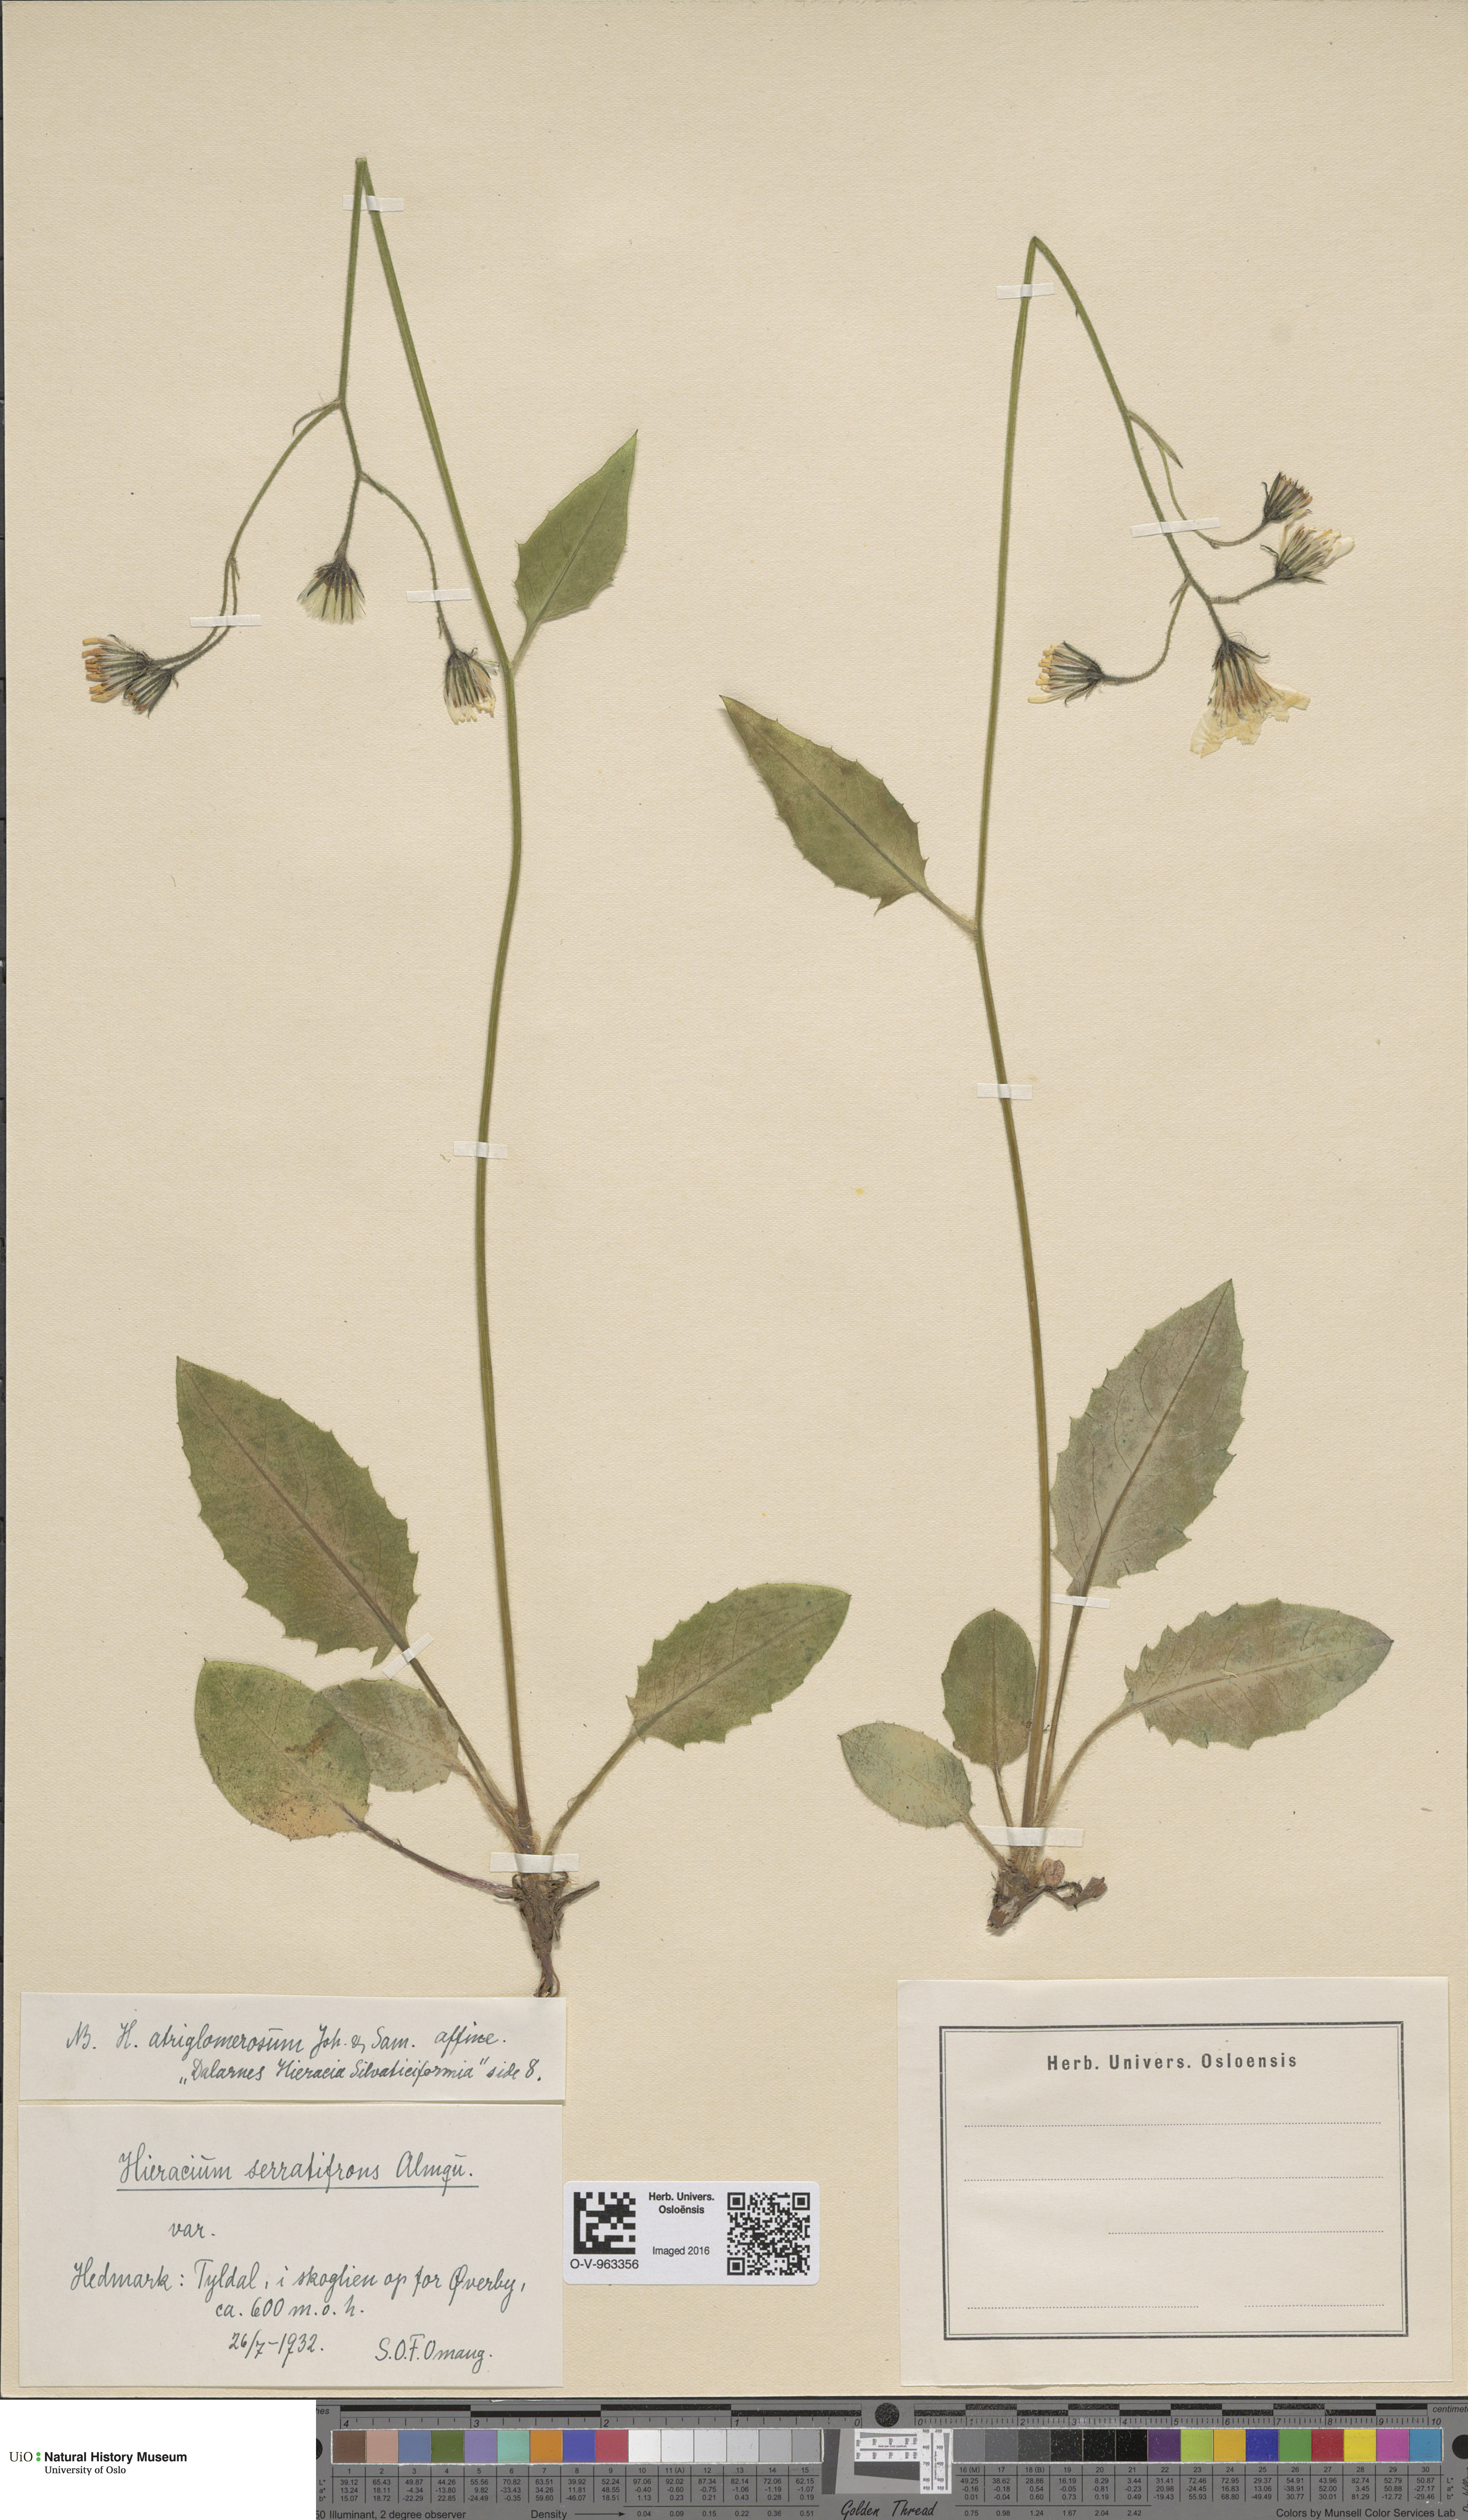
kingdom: Plantae
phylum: Tracheophyta
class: Magnoliopsida
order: Asterales
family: Asteraceae
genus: Hieracium
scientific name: Hieracium serratifrons
